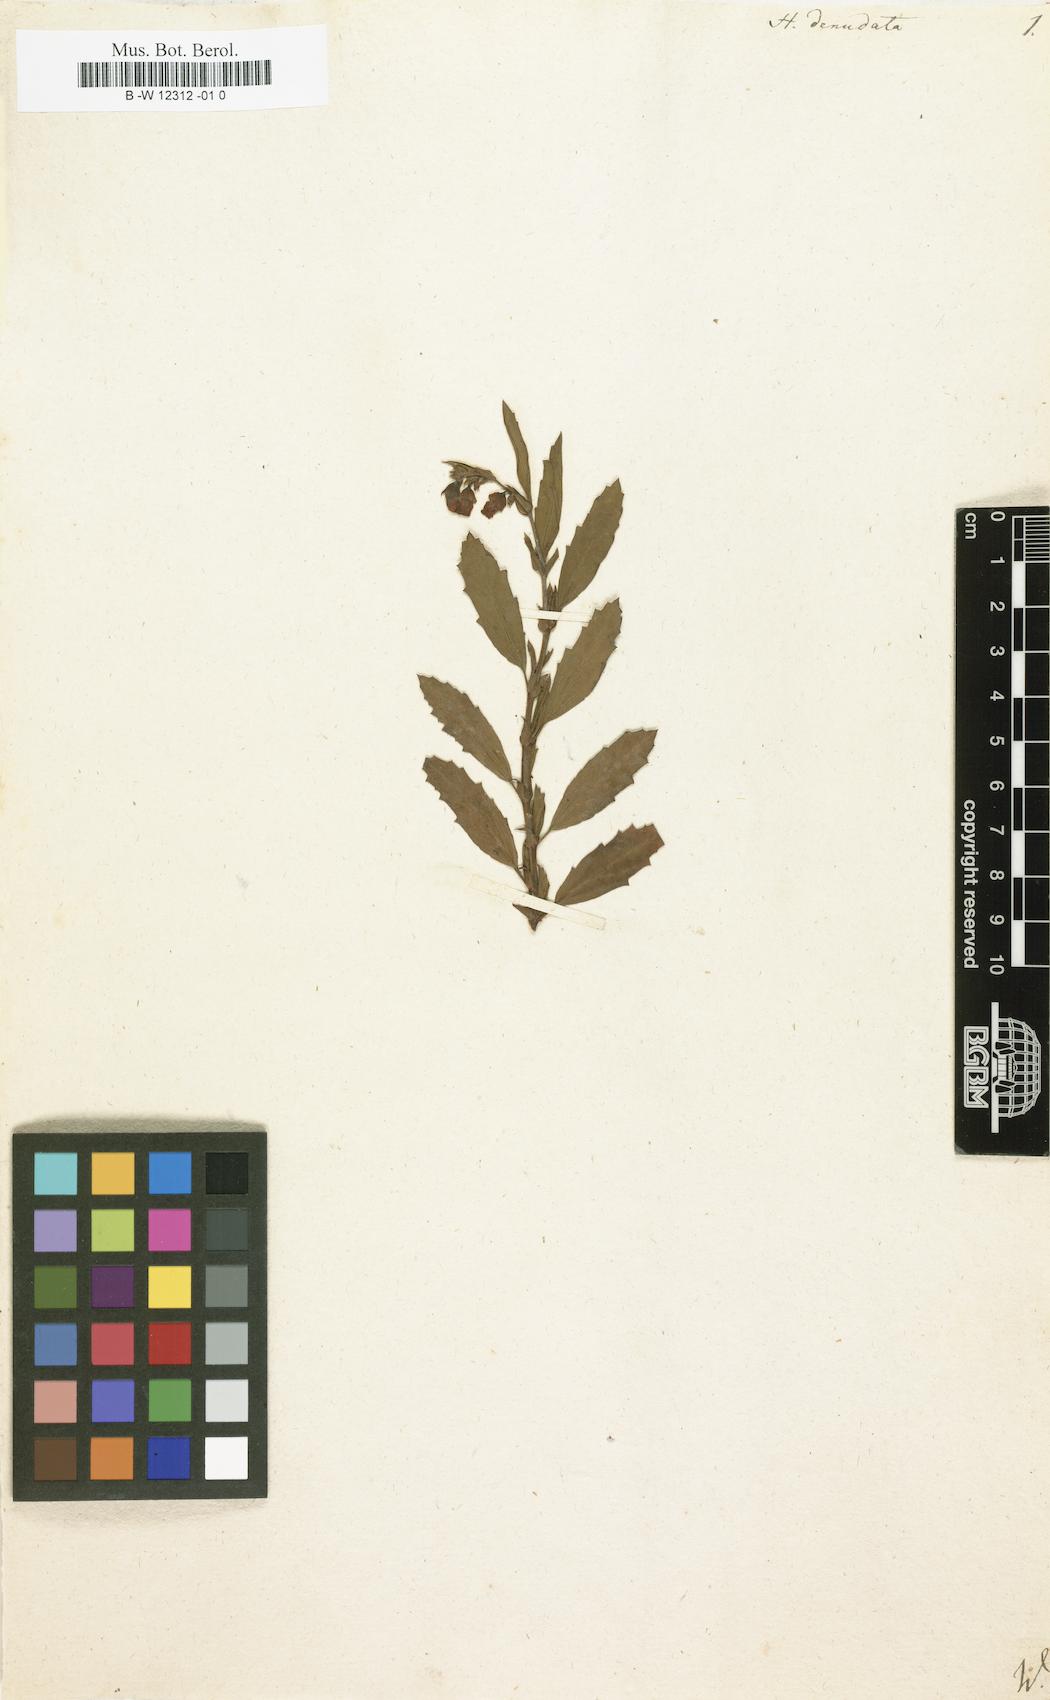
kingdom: Plantae
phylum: Tracheophyta
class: Magnoliopsida
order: Malvales
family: Malvaceae
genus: Hermannia
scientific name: Hermannia denudata
